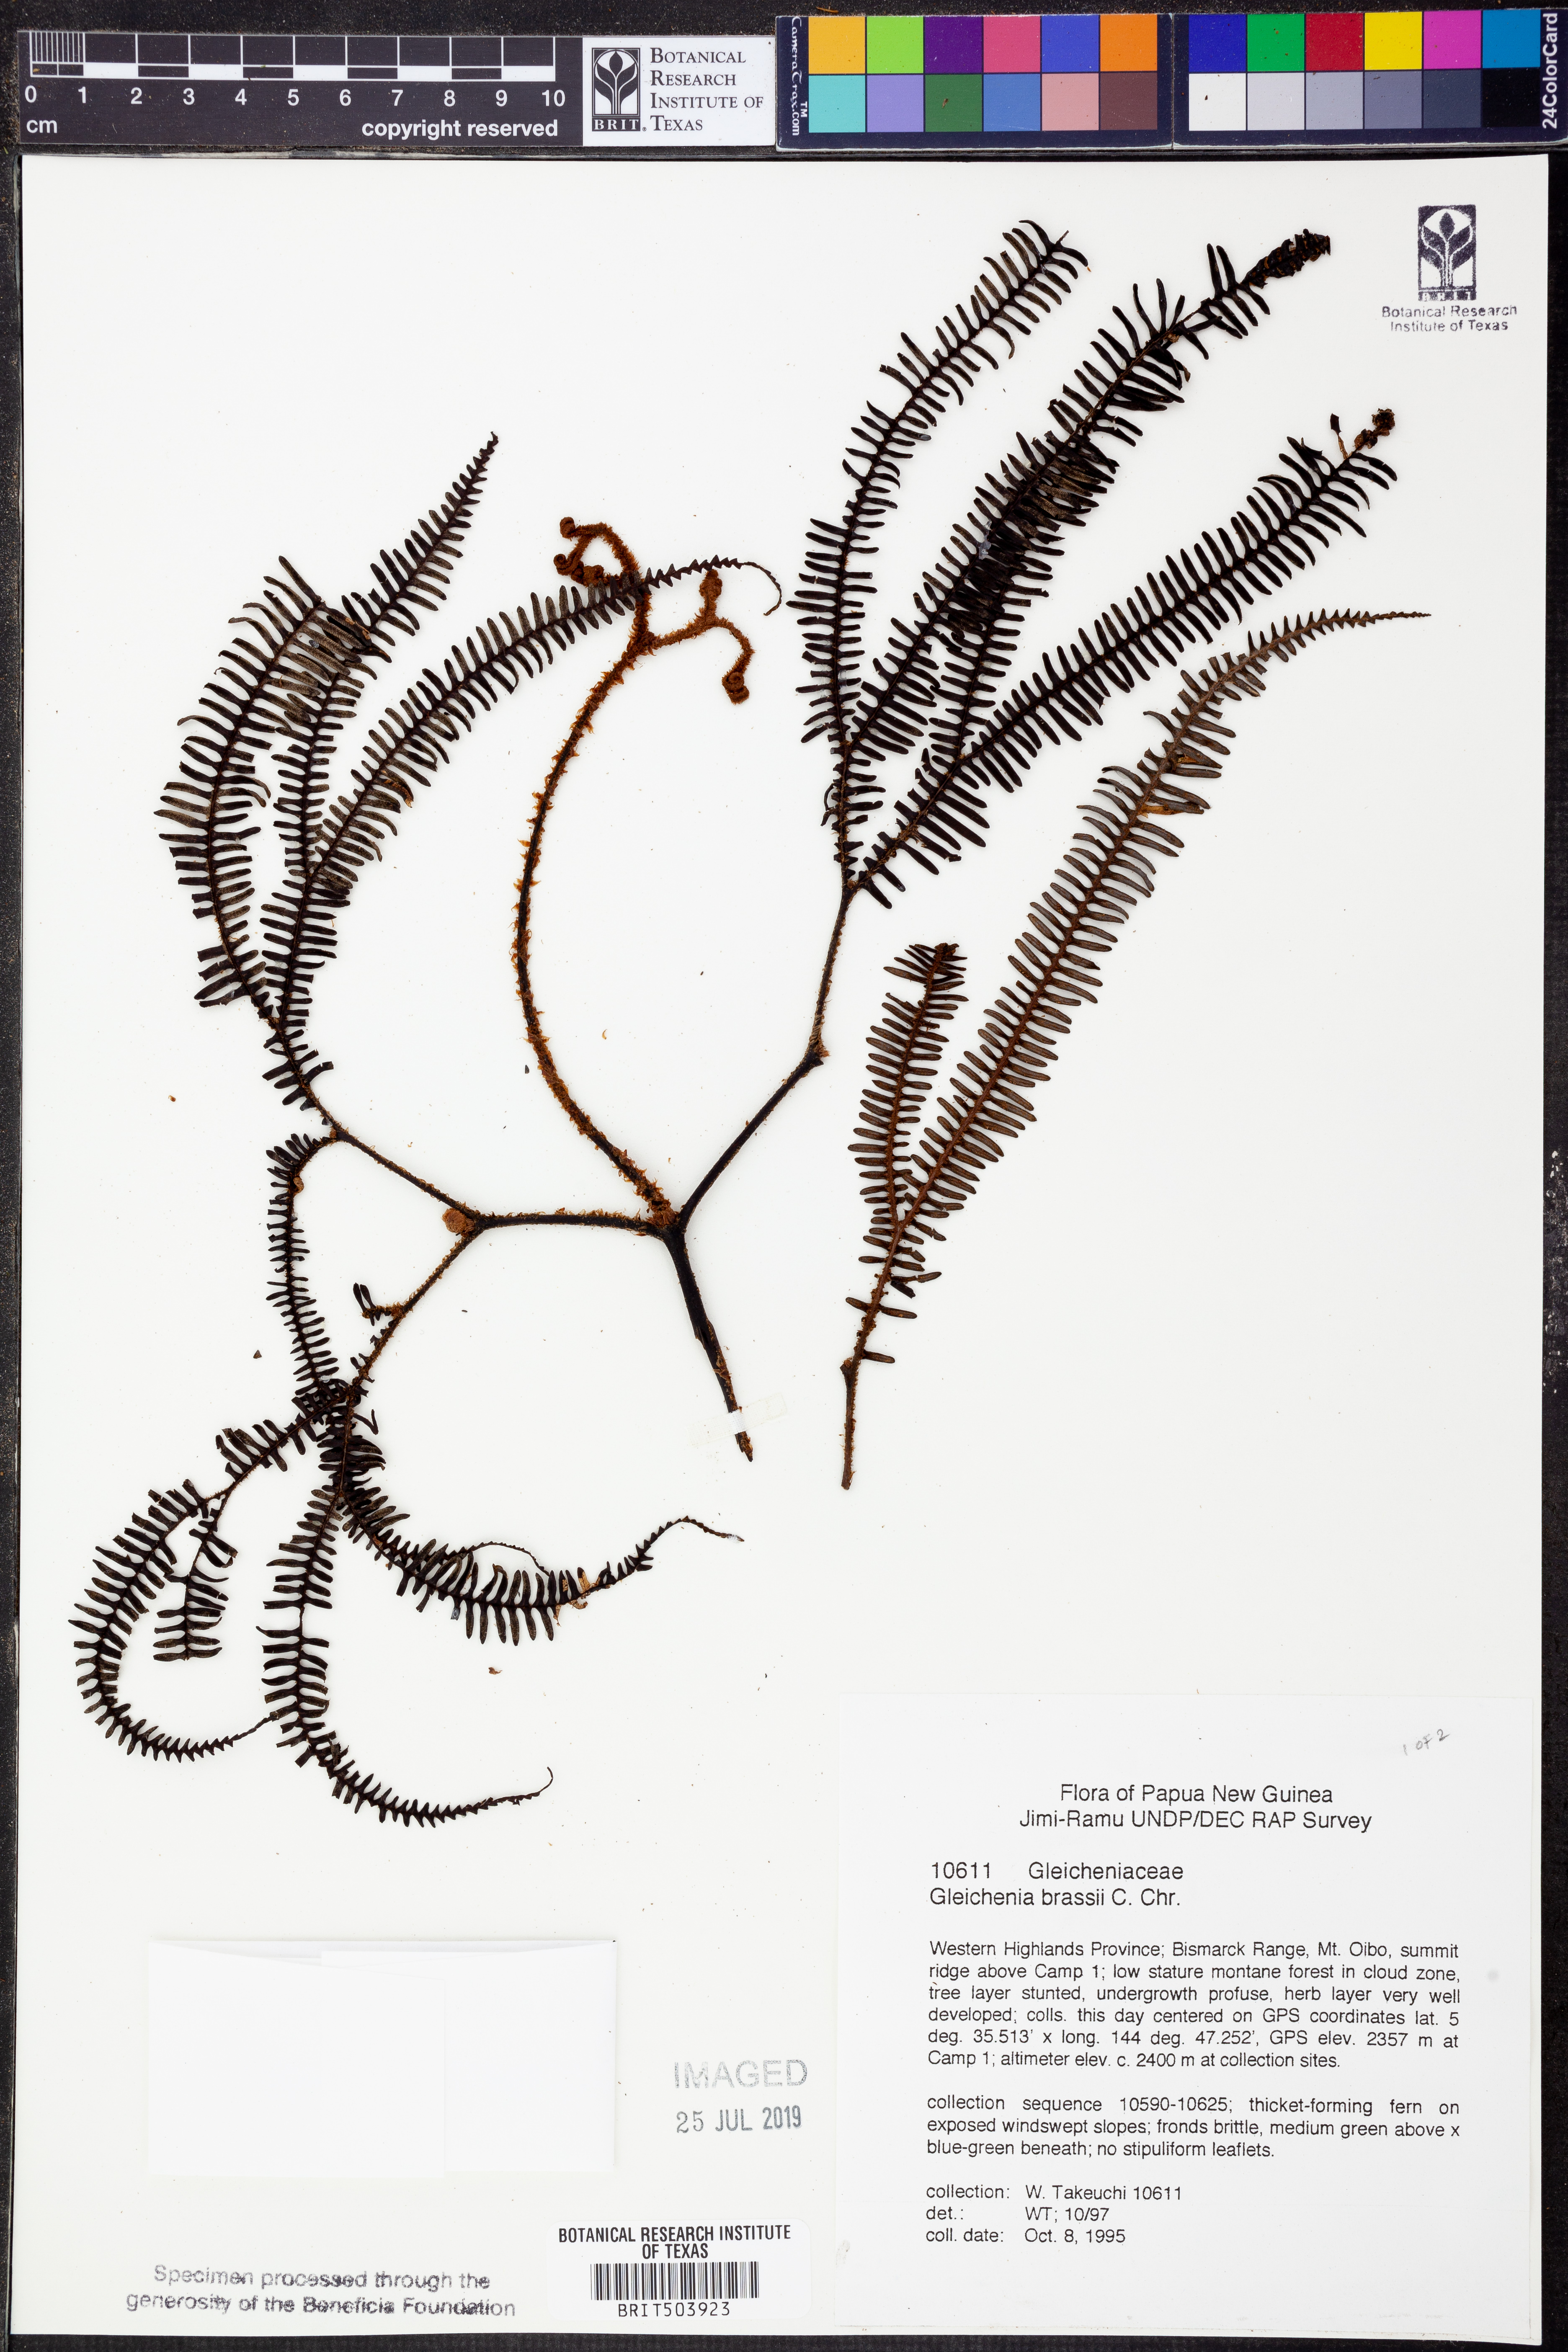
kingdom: Plantae
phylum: Tracheophyta
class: Polypodiopsida
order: Gleicheniales
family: Gleicheniaceae
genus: Sticherus
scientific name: Sticherus brassii
